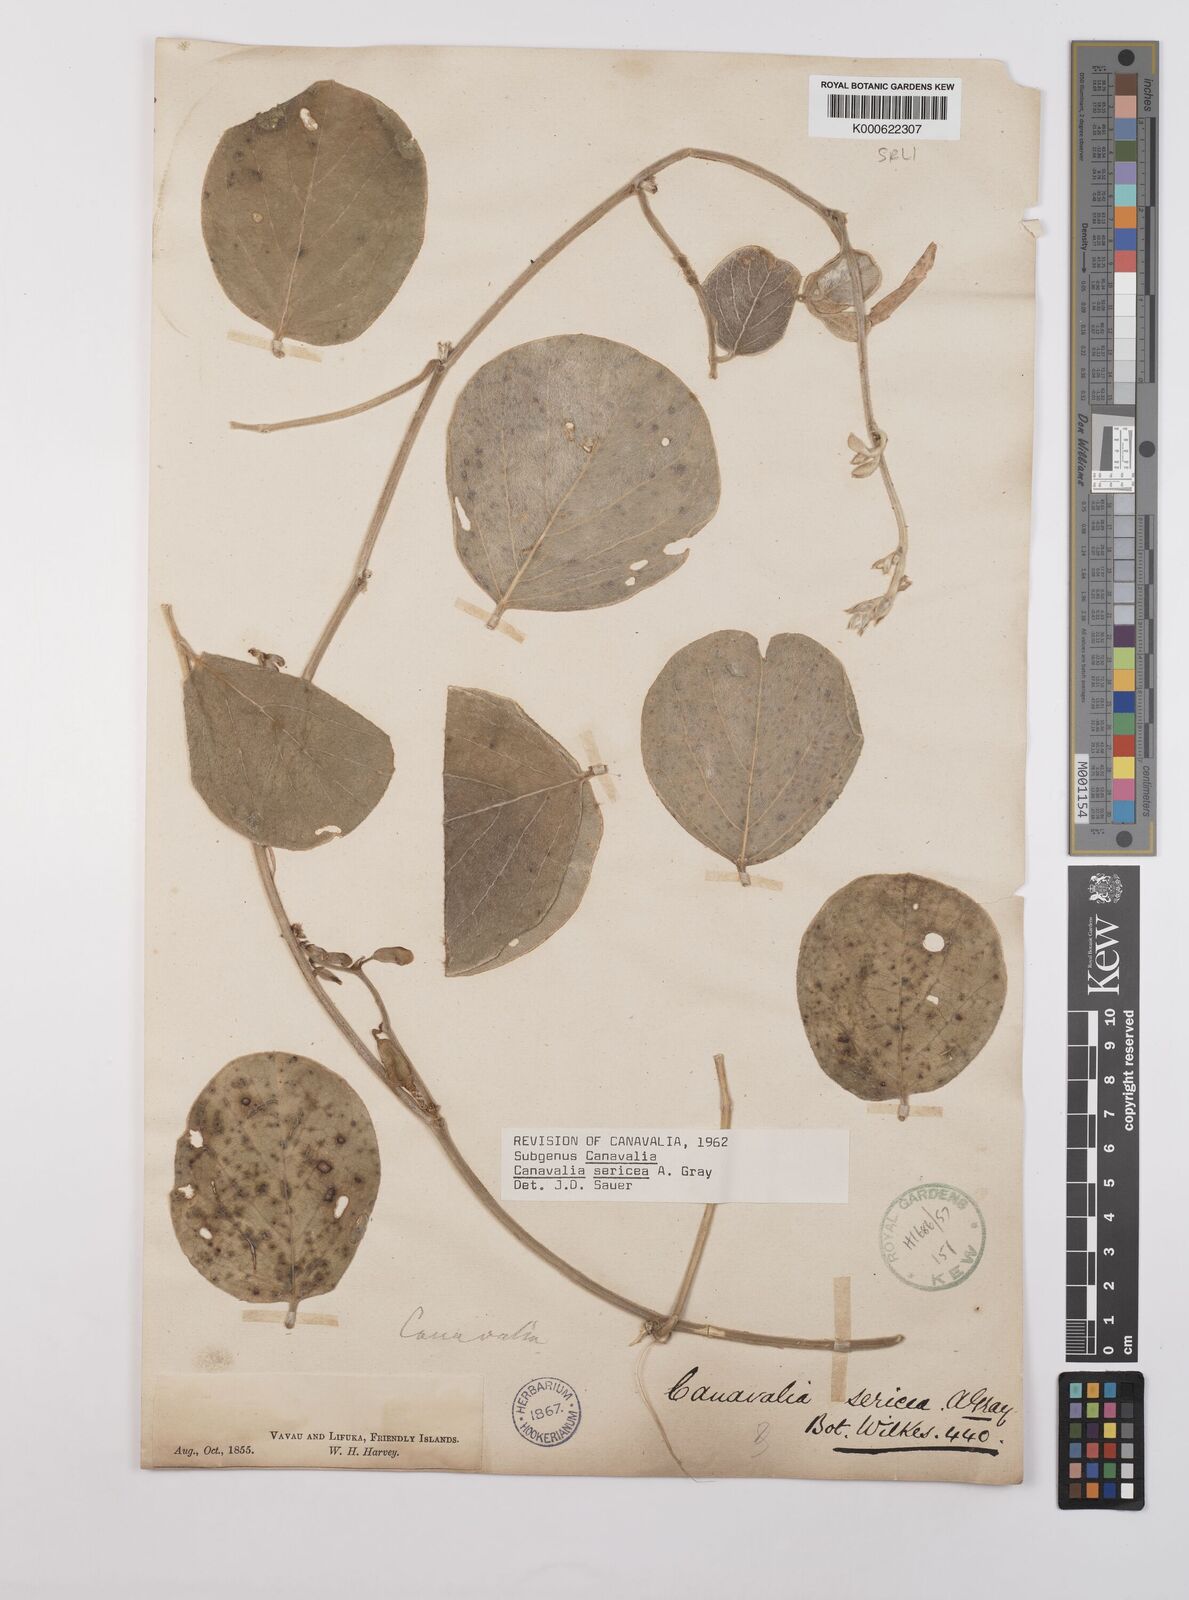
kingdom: Plantae
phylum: Tracheophyta
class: Magnoliopsida
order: Fabales
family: Fabaceae
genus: Canavalia
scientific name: Canavalia sericea
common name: Silky jackbean
